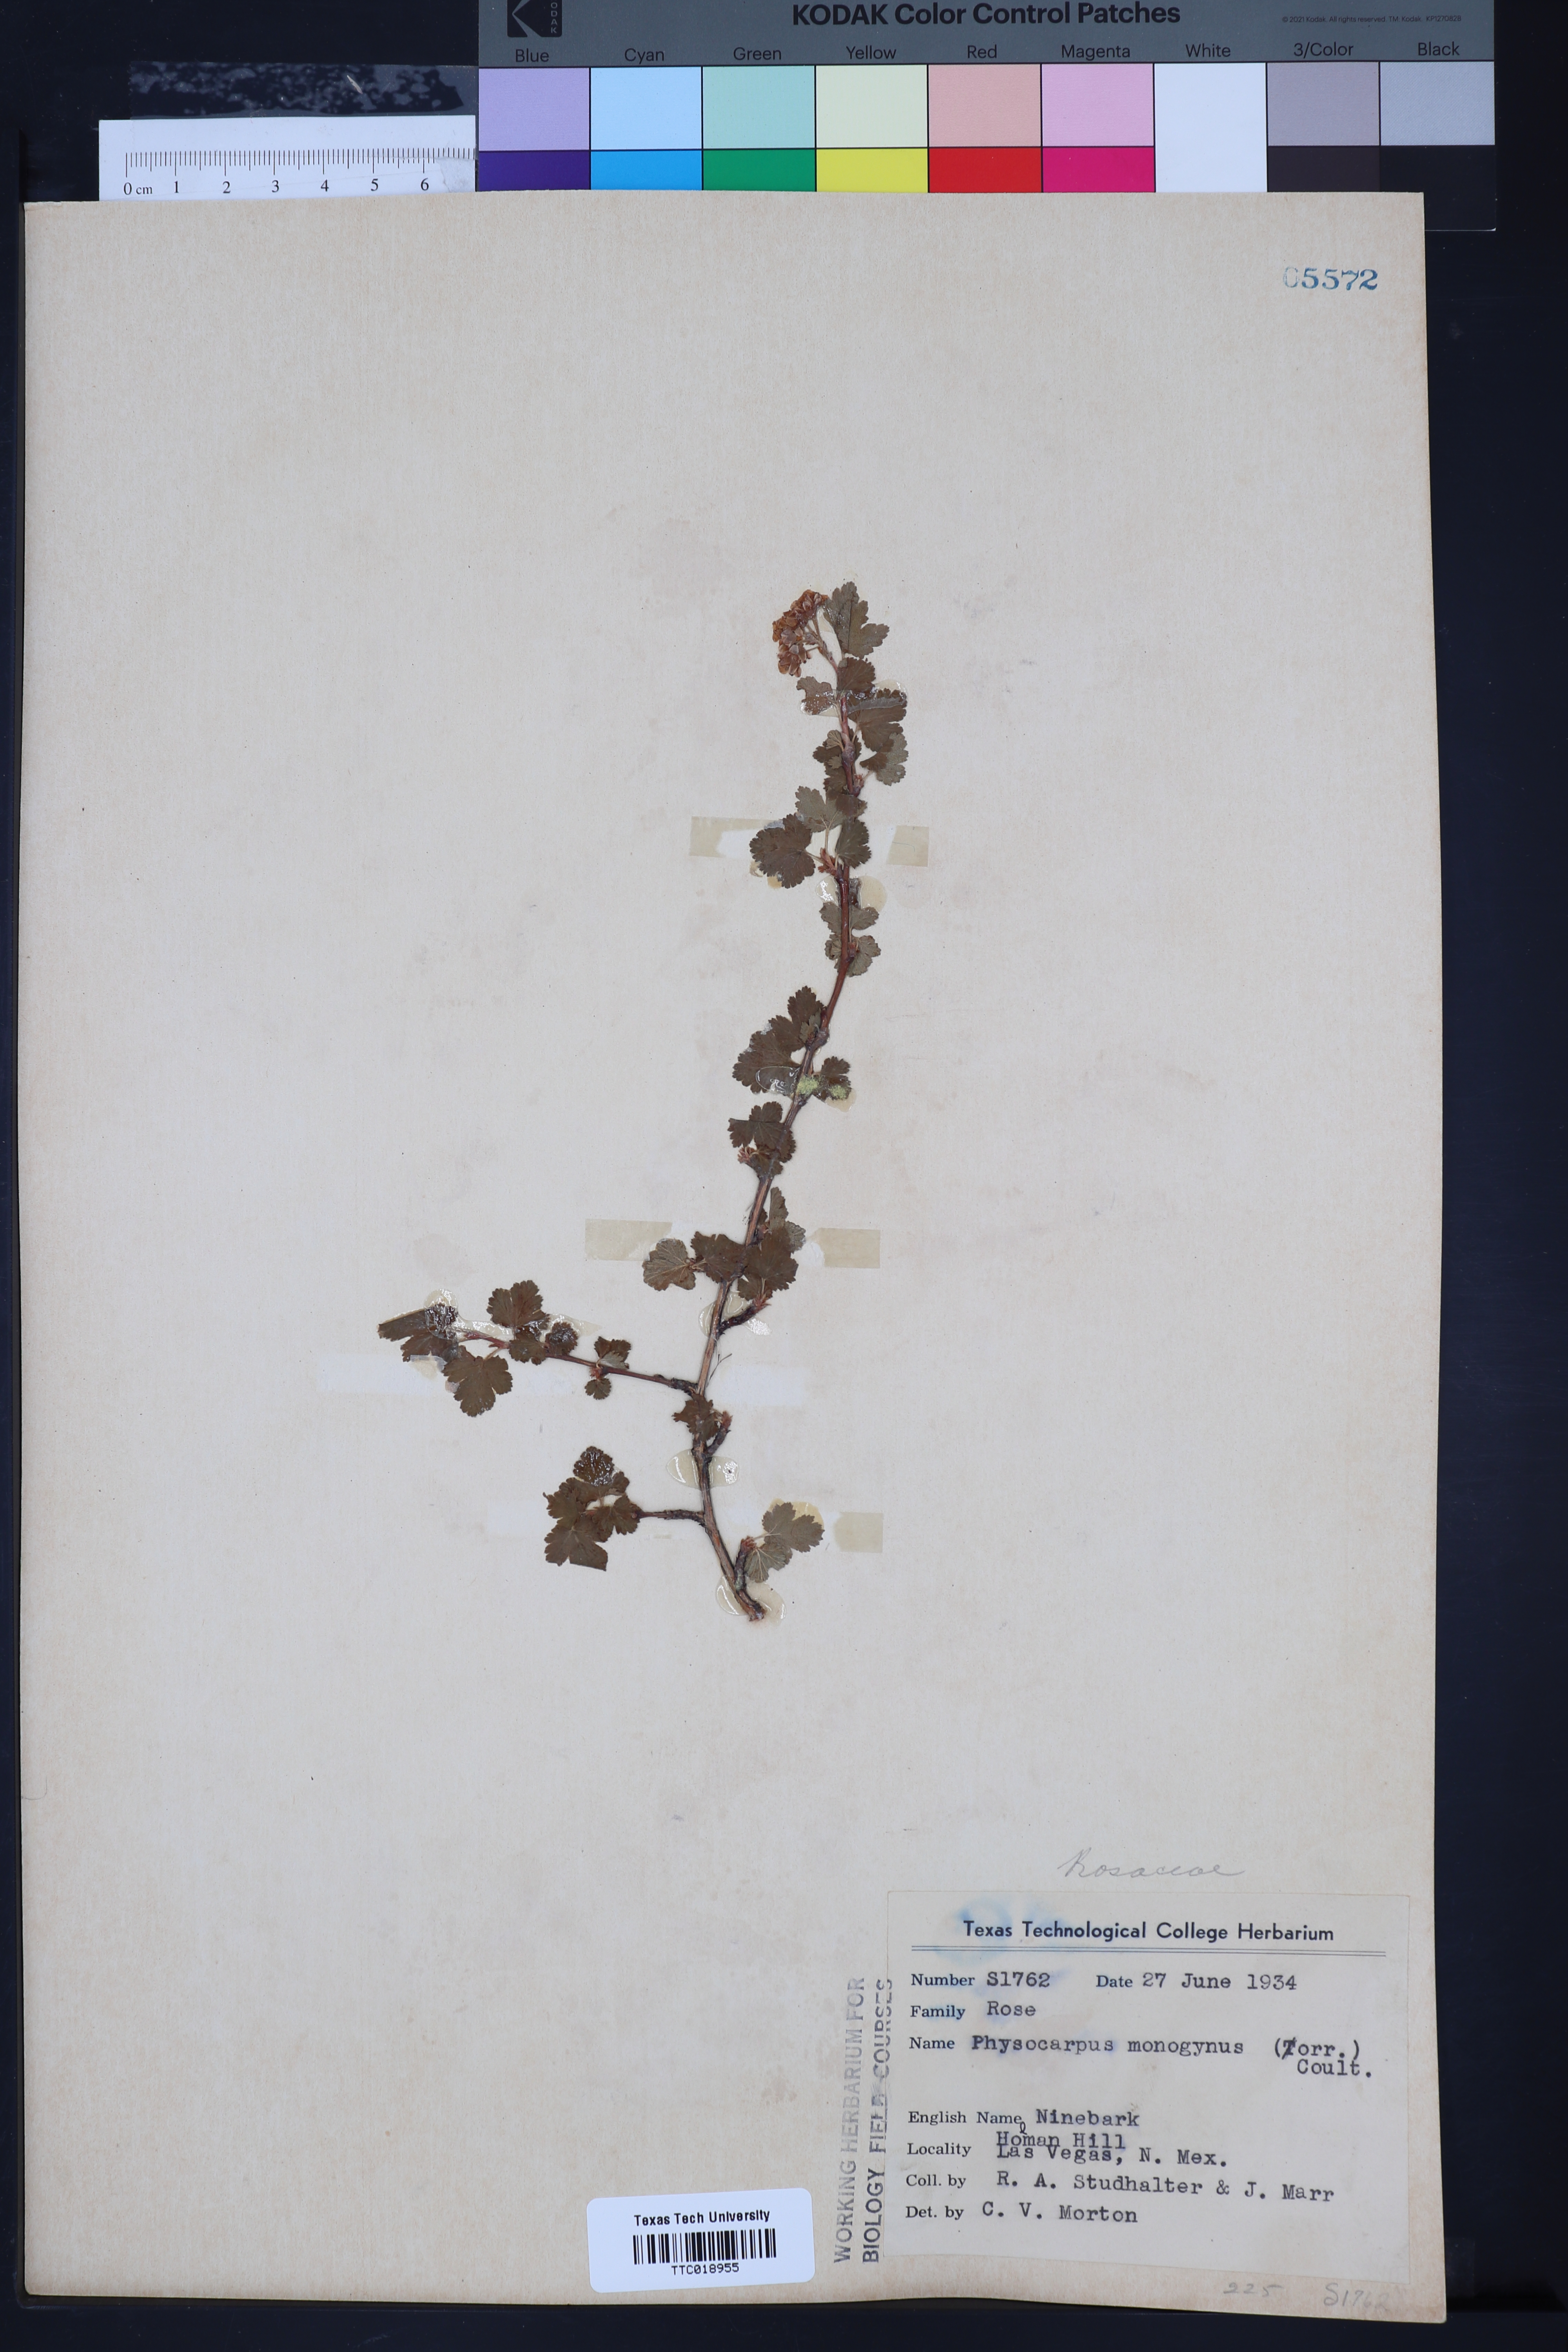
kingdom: Plantae
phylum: Tracheophyta
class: Magnoliopsida
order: Rosales
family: Rosaceae
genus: Physocarpus
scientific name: Physocarpus monogynus
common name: Mountain ninebark
